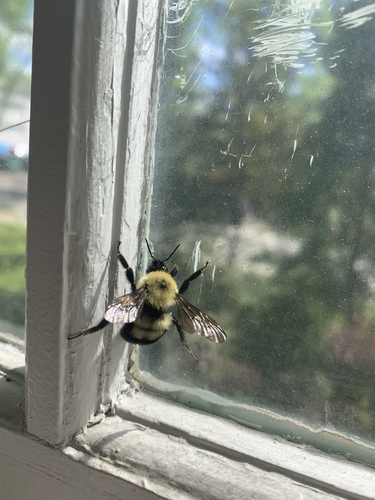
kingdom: Animalia
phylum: Arthropoda
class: Insecta
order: Hymenoptera
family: Apidae
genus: Bombus
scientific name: Bombus bimaculatus
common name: Two-spotted bumble bee
